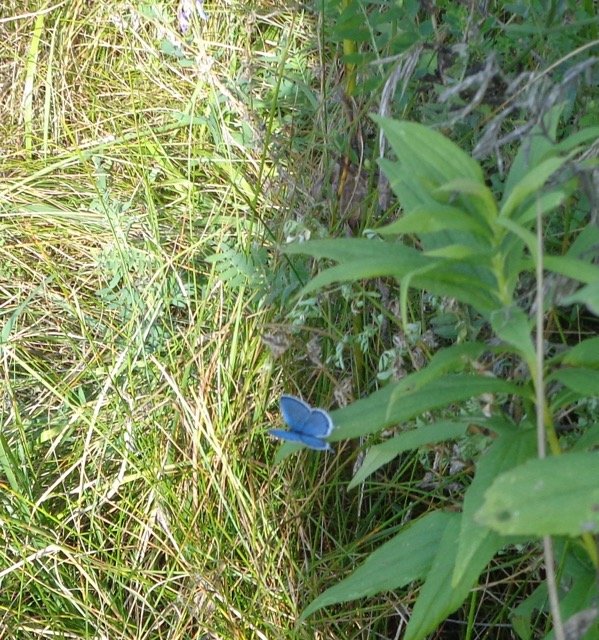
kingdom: Animalia
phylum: Arthropoda
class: Insecta
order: Lepidoptera
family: Lycaenidae
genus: Elkalyce
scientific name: Elkalyce comyntas
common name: Eastern Tailed-Blue
